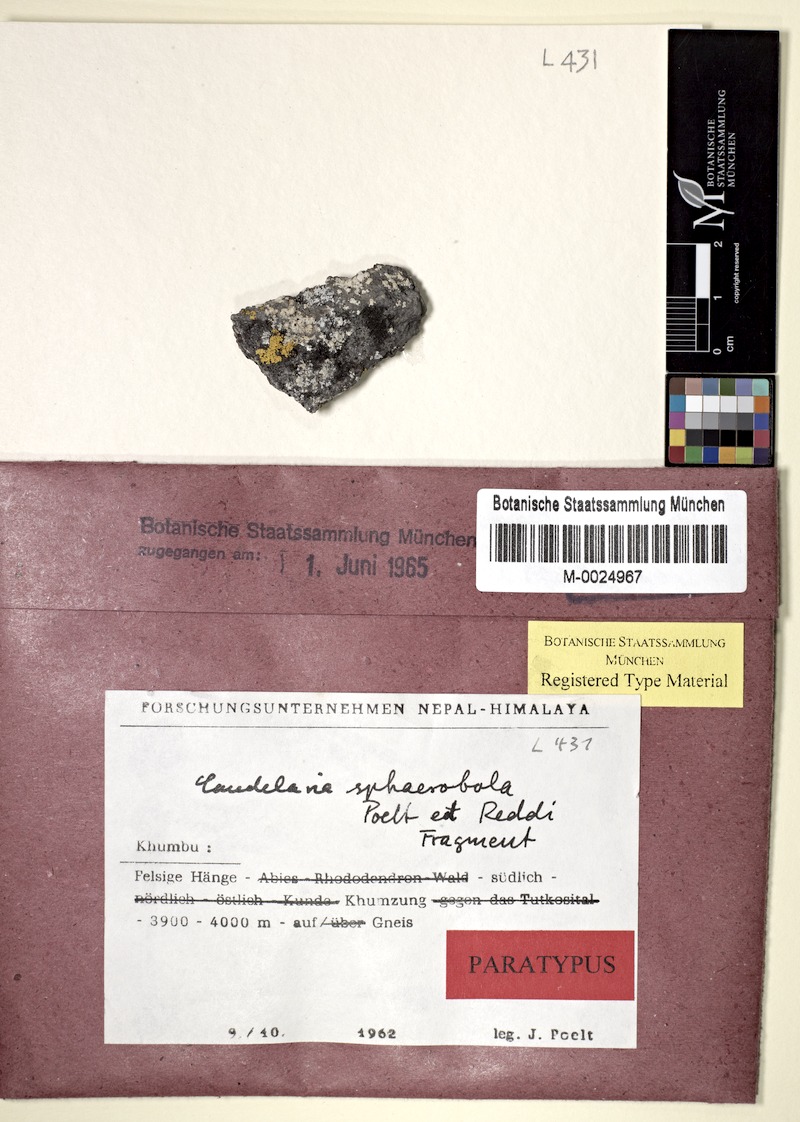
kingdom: Fungi
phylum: Ascomycota
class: Candelariomycetes
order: Candelariales
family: Candelariaceae
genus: Candelaria
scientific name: Candelaria
